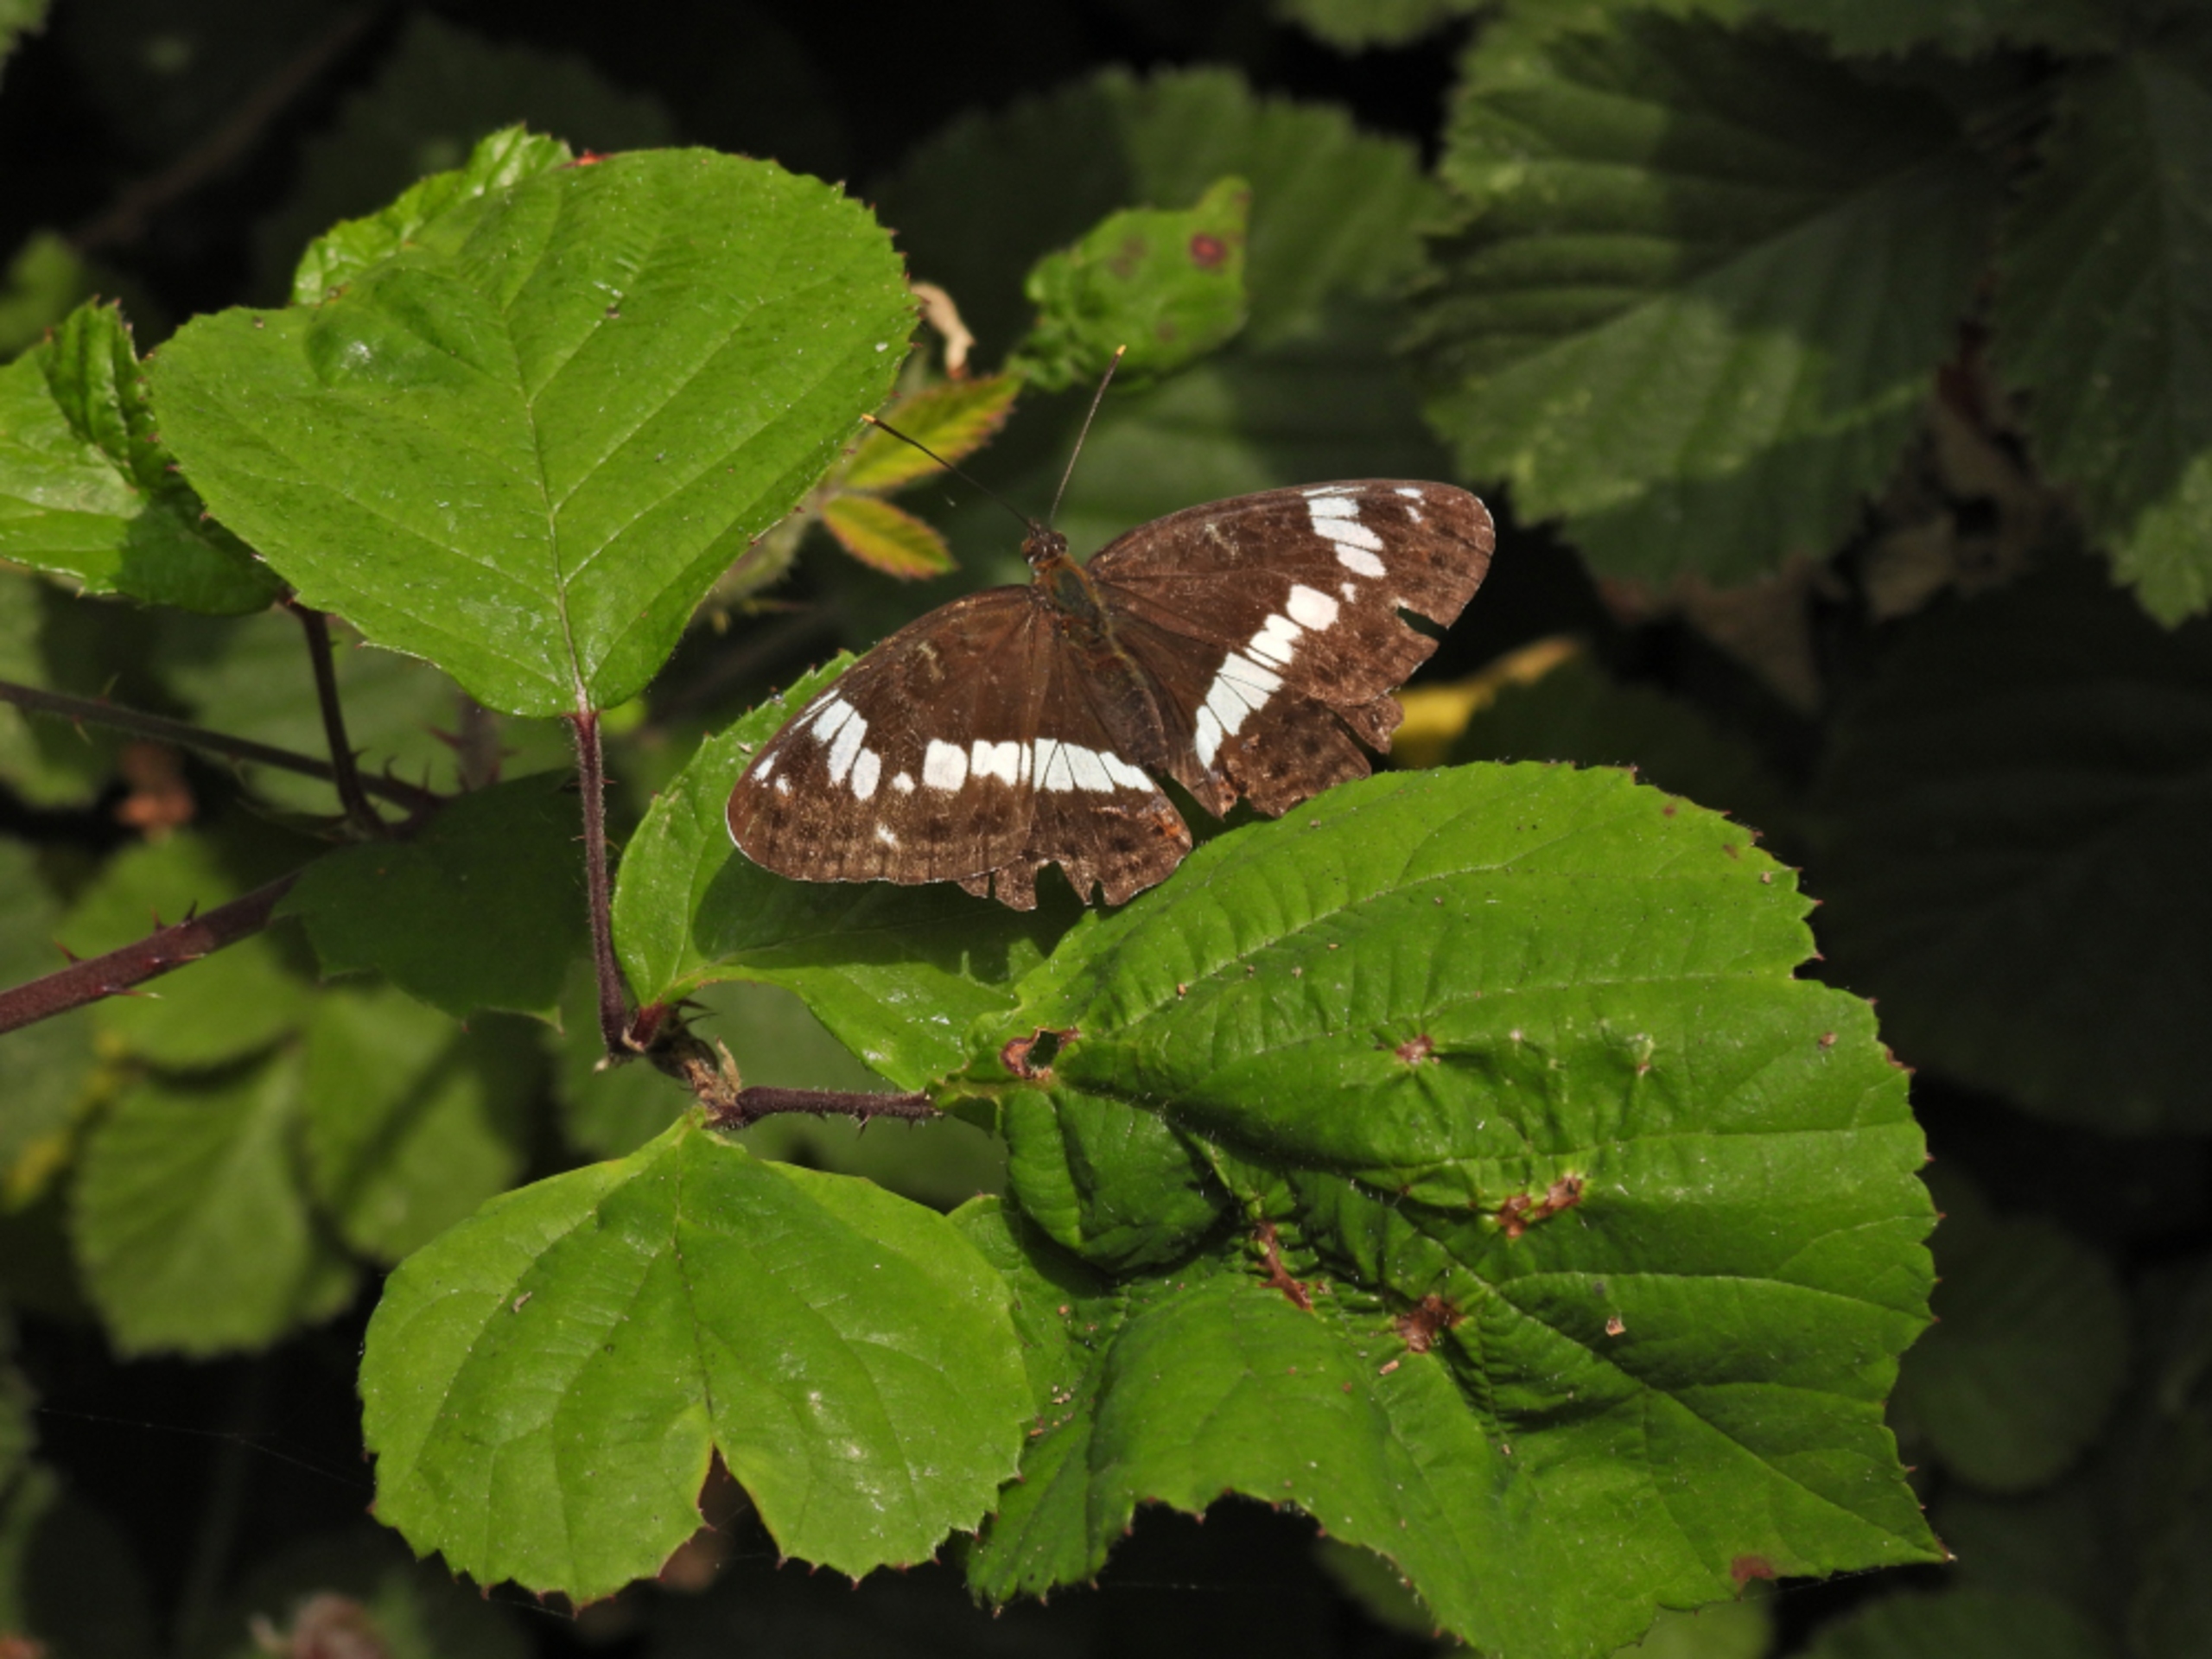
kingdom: Animalia
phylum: Arthropoda
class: Insecta
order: Lepidoptera
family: Nymphalidae
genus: Ladoga
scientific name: Ladoga camilla
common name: Hvid admiral
